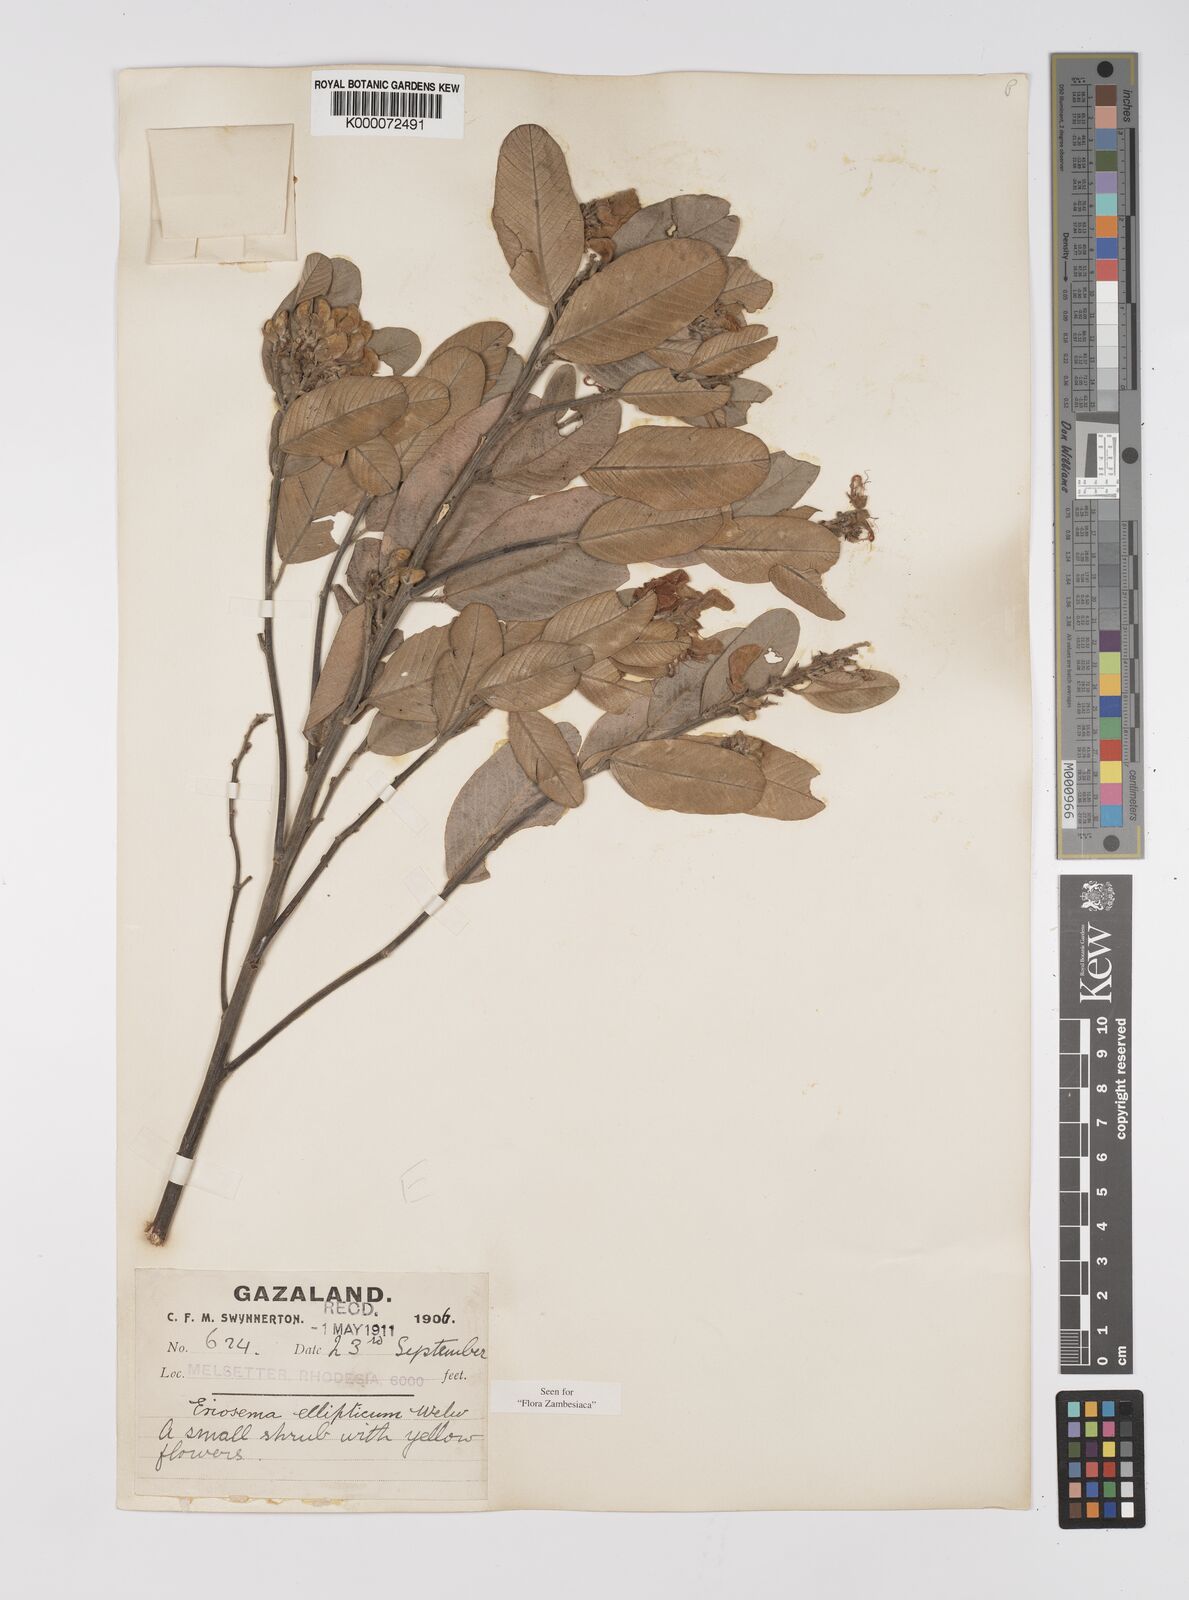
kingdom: Plantae
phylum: Tracheophyta
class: Magnoliopsida
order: Fabales
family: Fabaceae
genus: Eriosema
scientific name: Eriosema ellipticum
